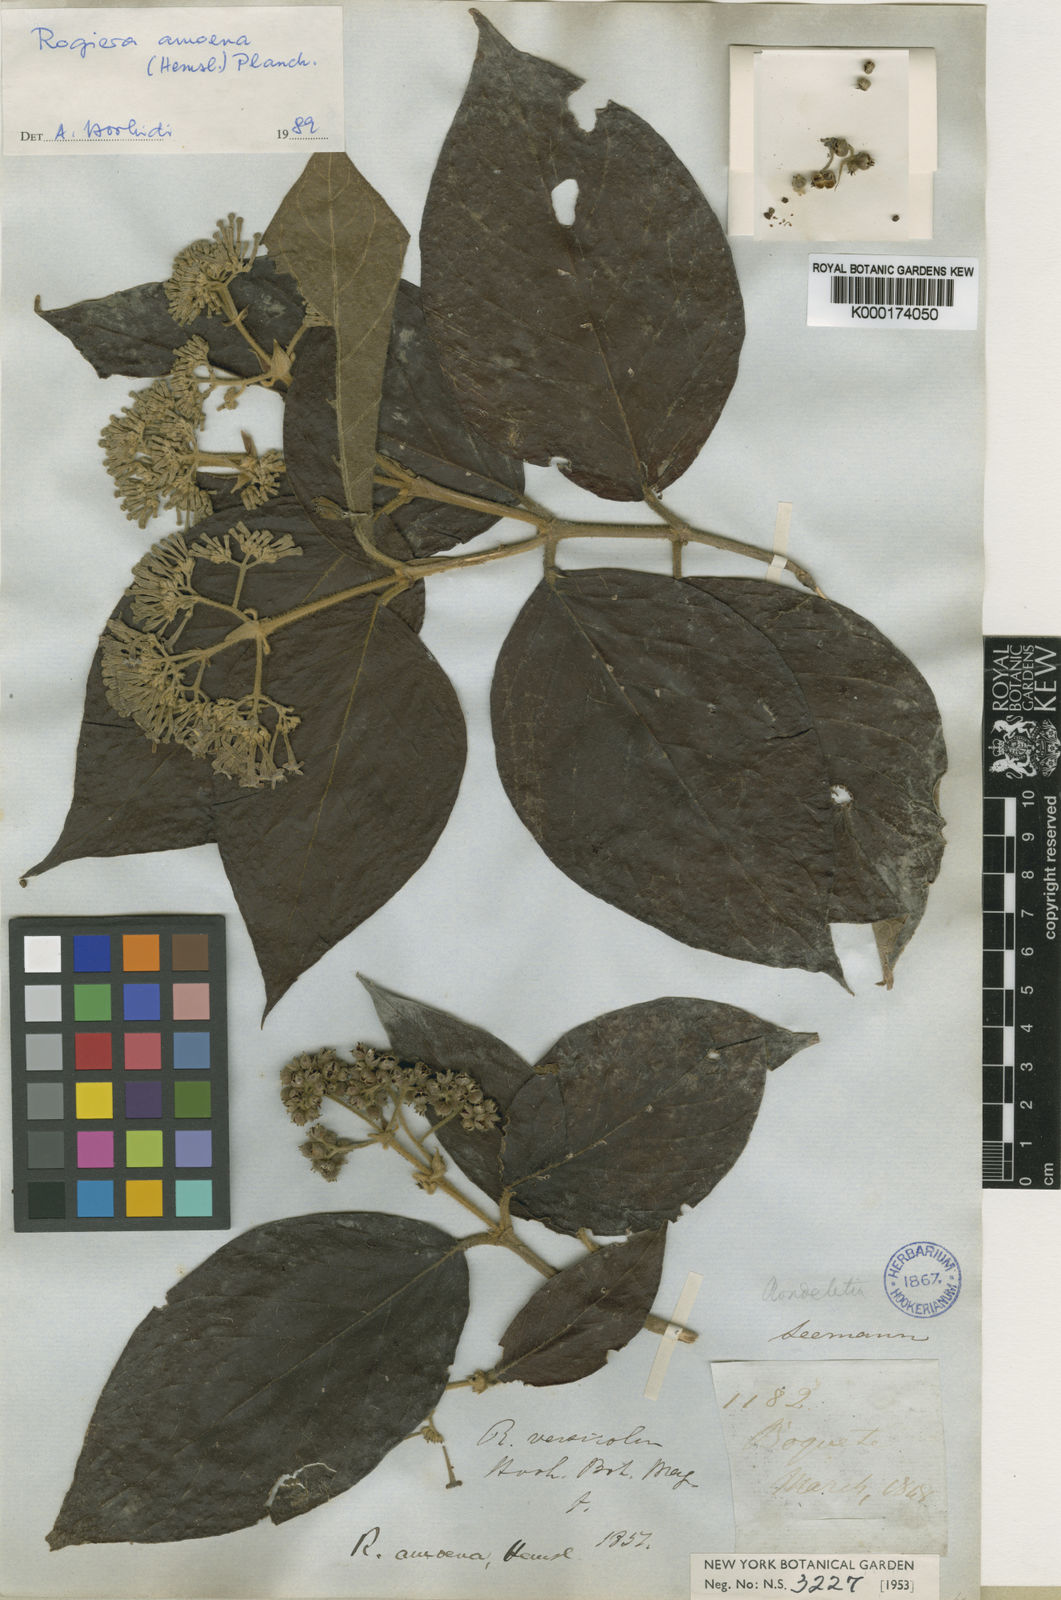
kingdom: Plantae
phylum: Tracheophyta
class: Magnoliopsida
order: Gentianales
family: Rubiaceae
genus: Rogiera
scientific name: Rogiera amoena
